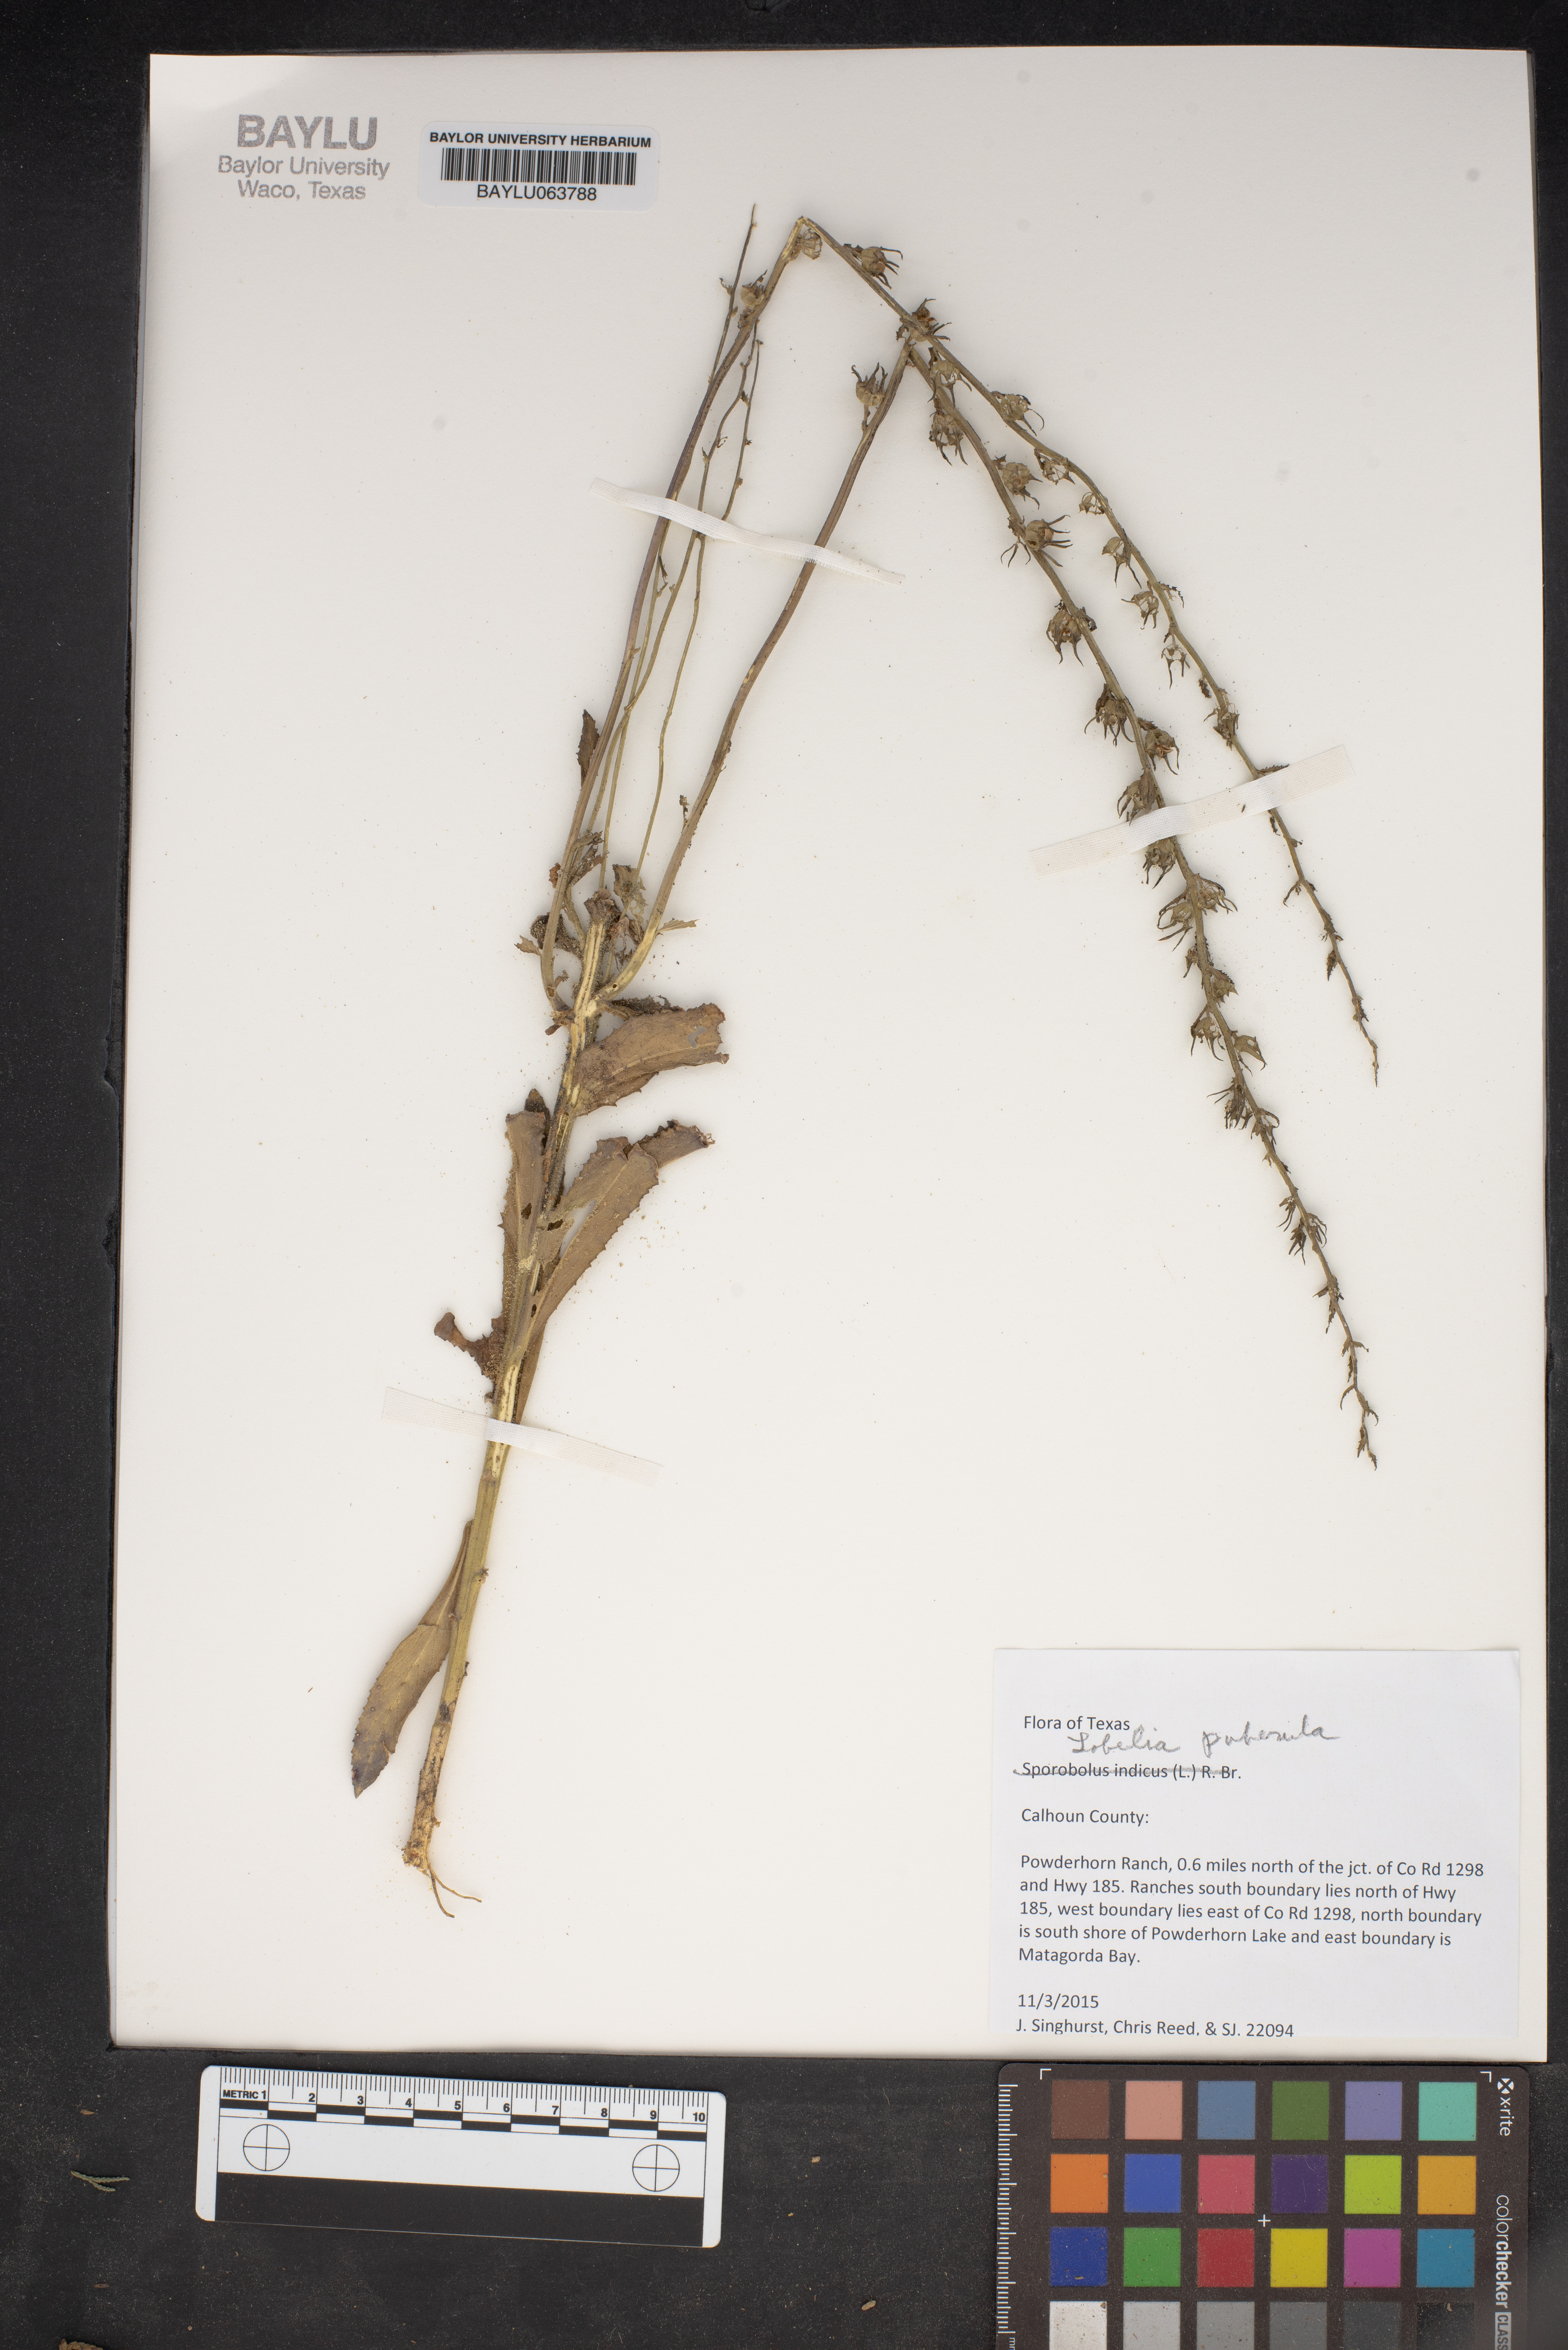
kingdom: Plantae
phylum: Tracheophyta
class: Magnoliopsida
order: Asterales
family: Campanulaceae
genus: Lobelia
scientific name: Lobelia puberula
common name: Purple dewdrop
